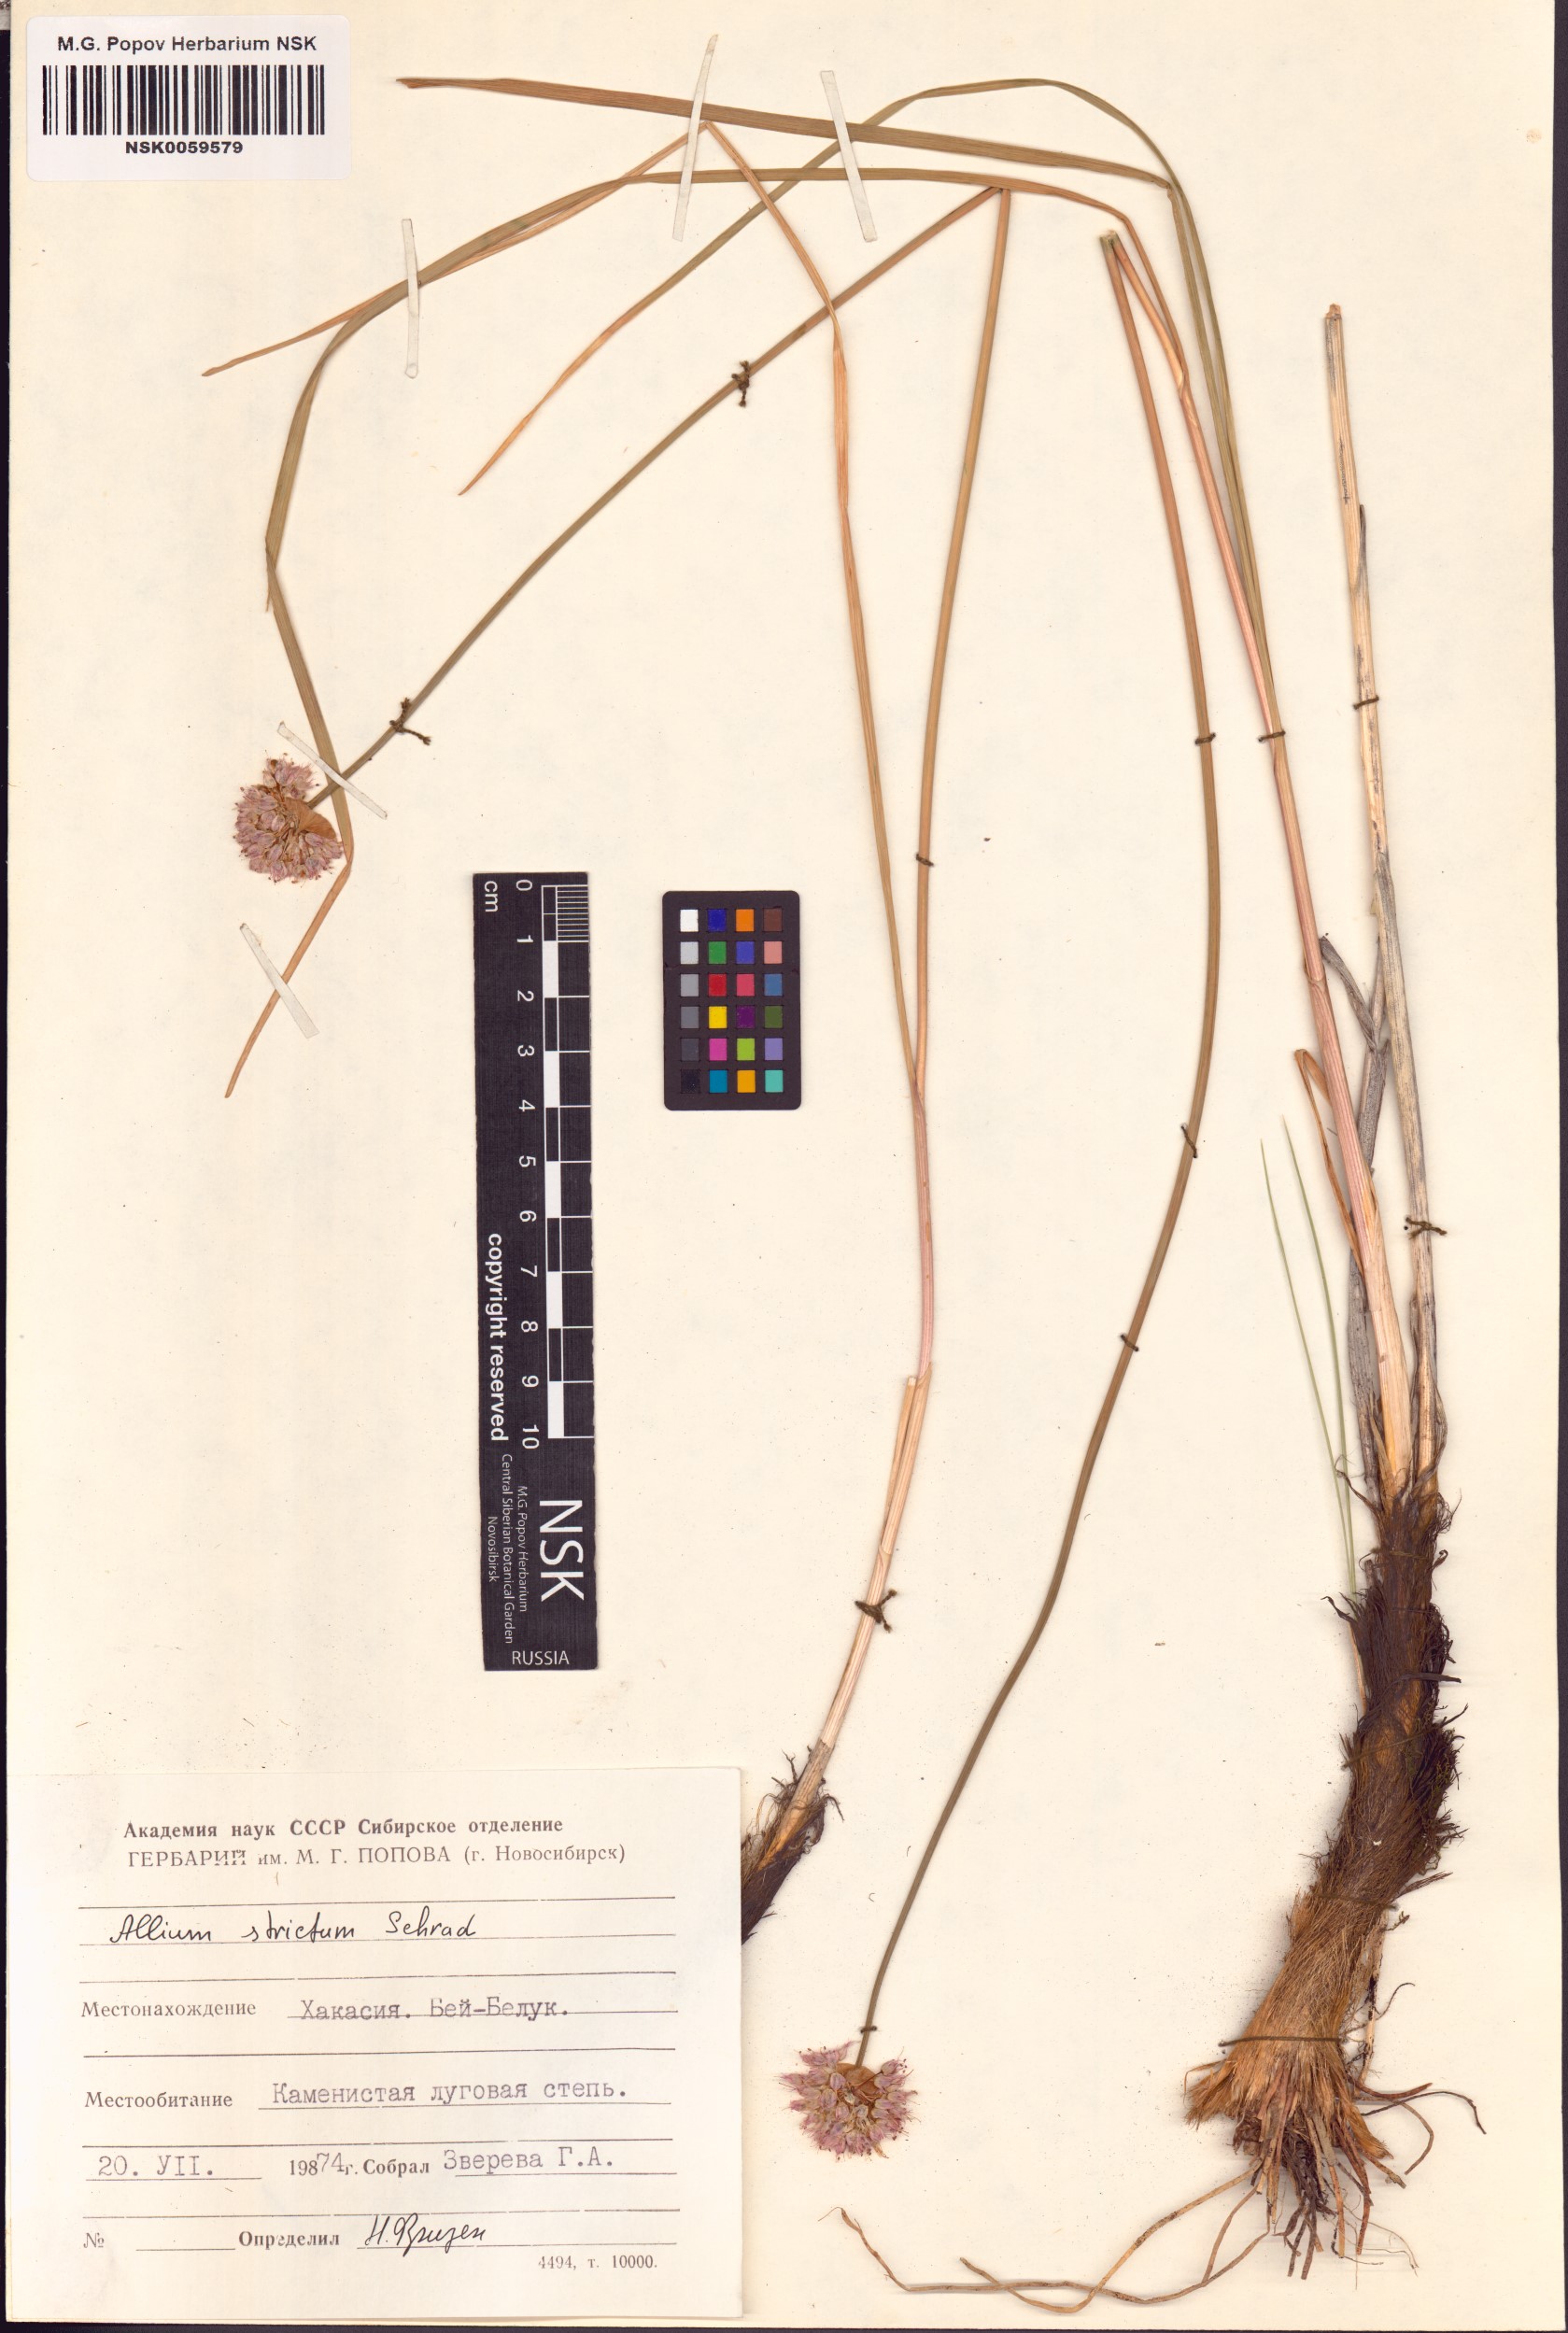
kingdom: Plantae
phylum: Tracheophyta
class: Liliopsida
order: Asparagales
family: Amaryllidaceae
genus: Allium
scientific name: Allium strictum
